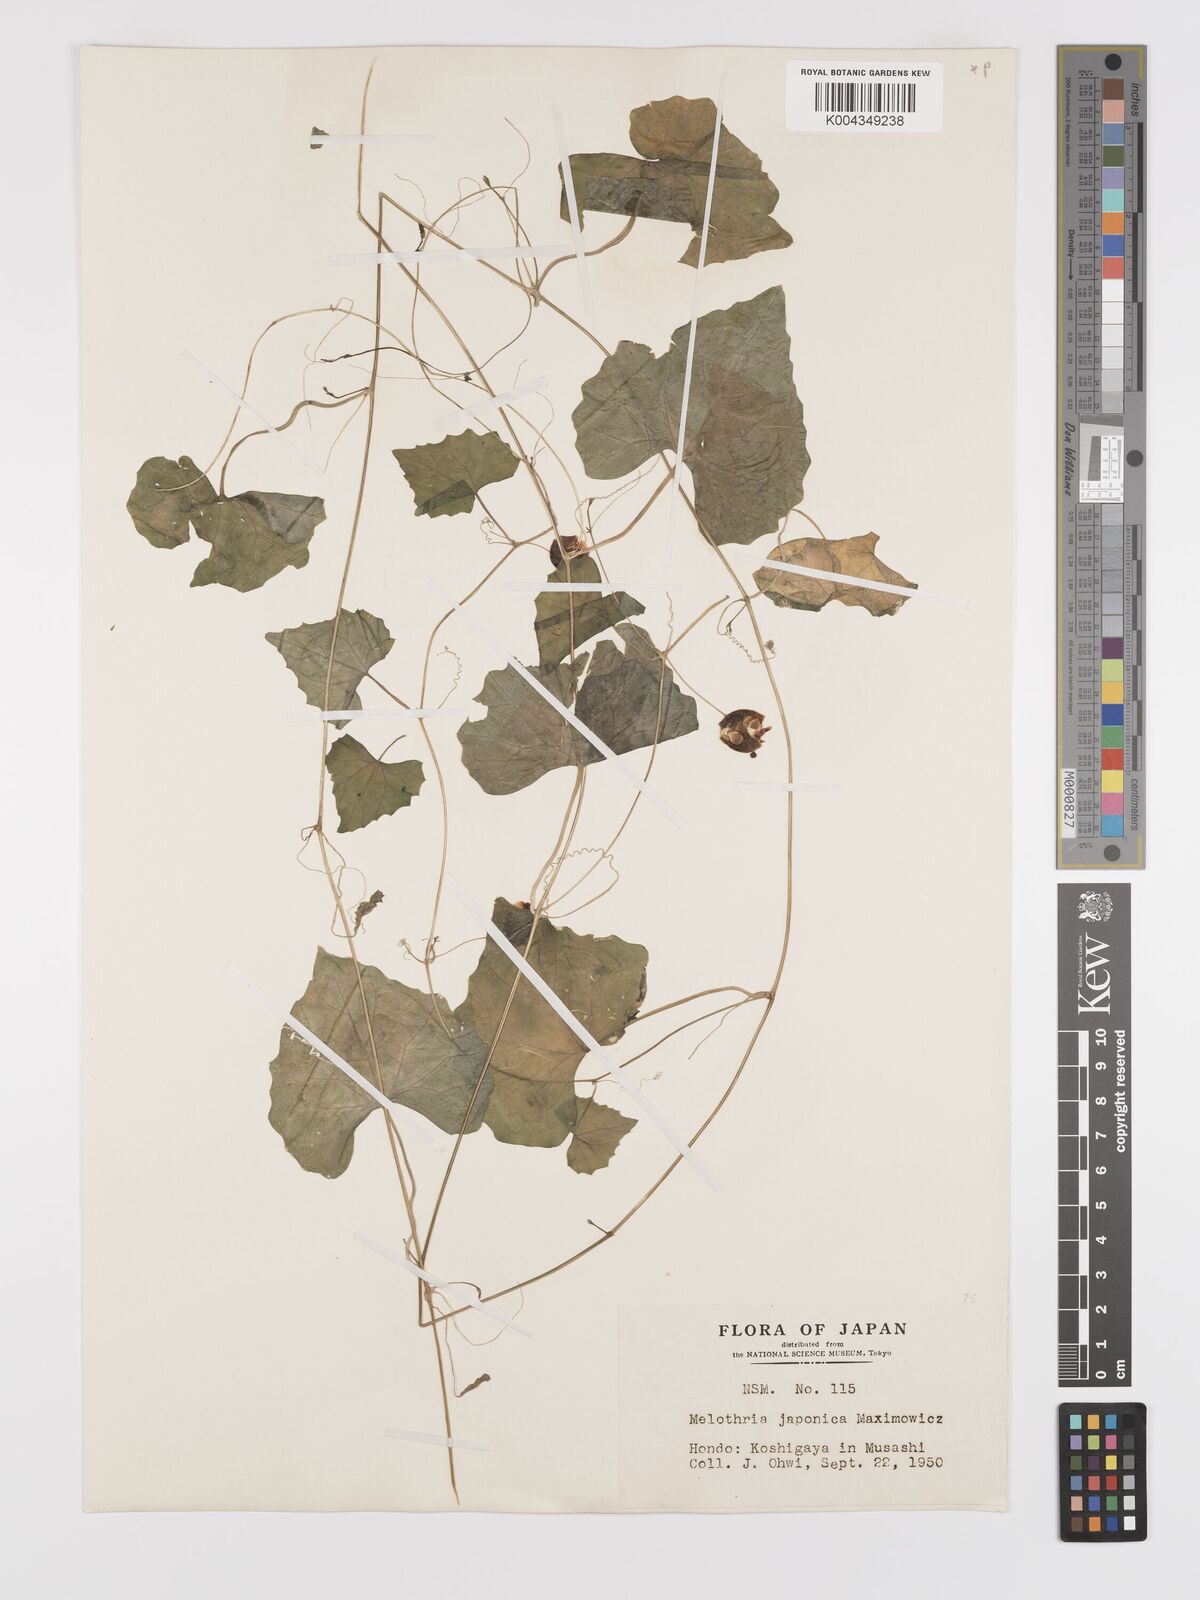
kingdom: Plantae
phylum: Tracheophyta
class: Magnoliopsida
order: Cucurbitales
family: Cucurbitaceae
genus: Zehneria
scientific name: Zehneria japonica
